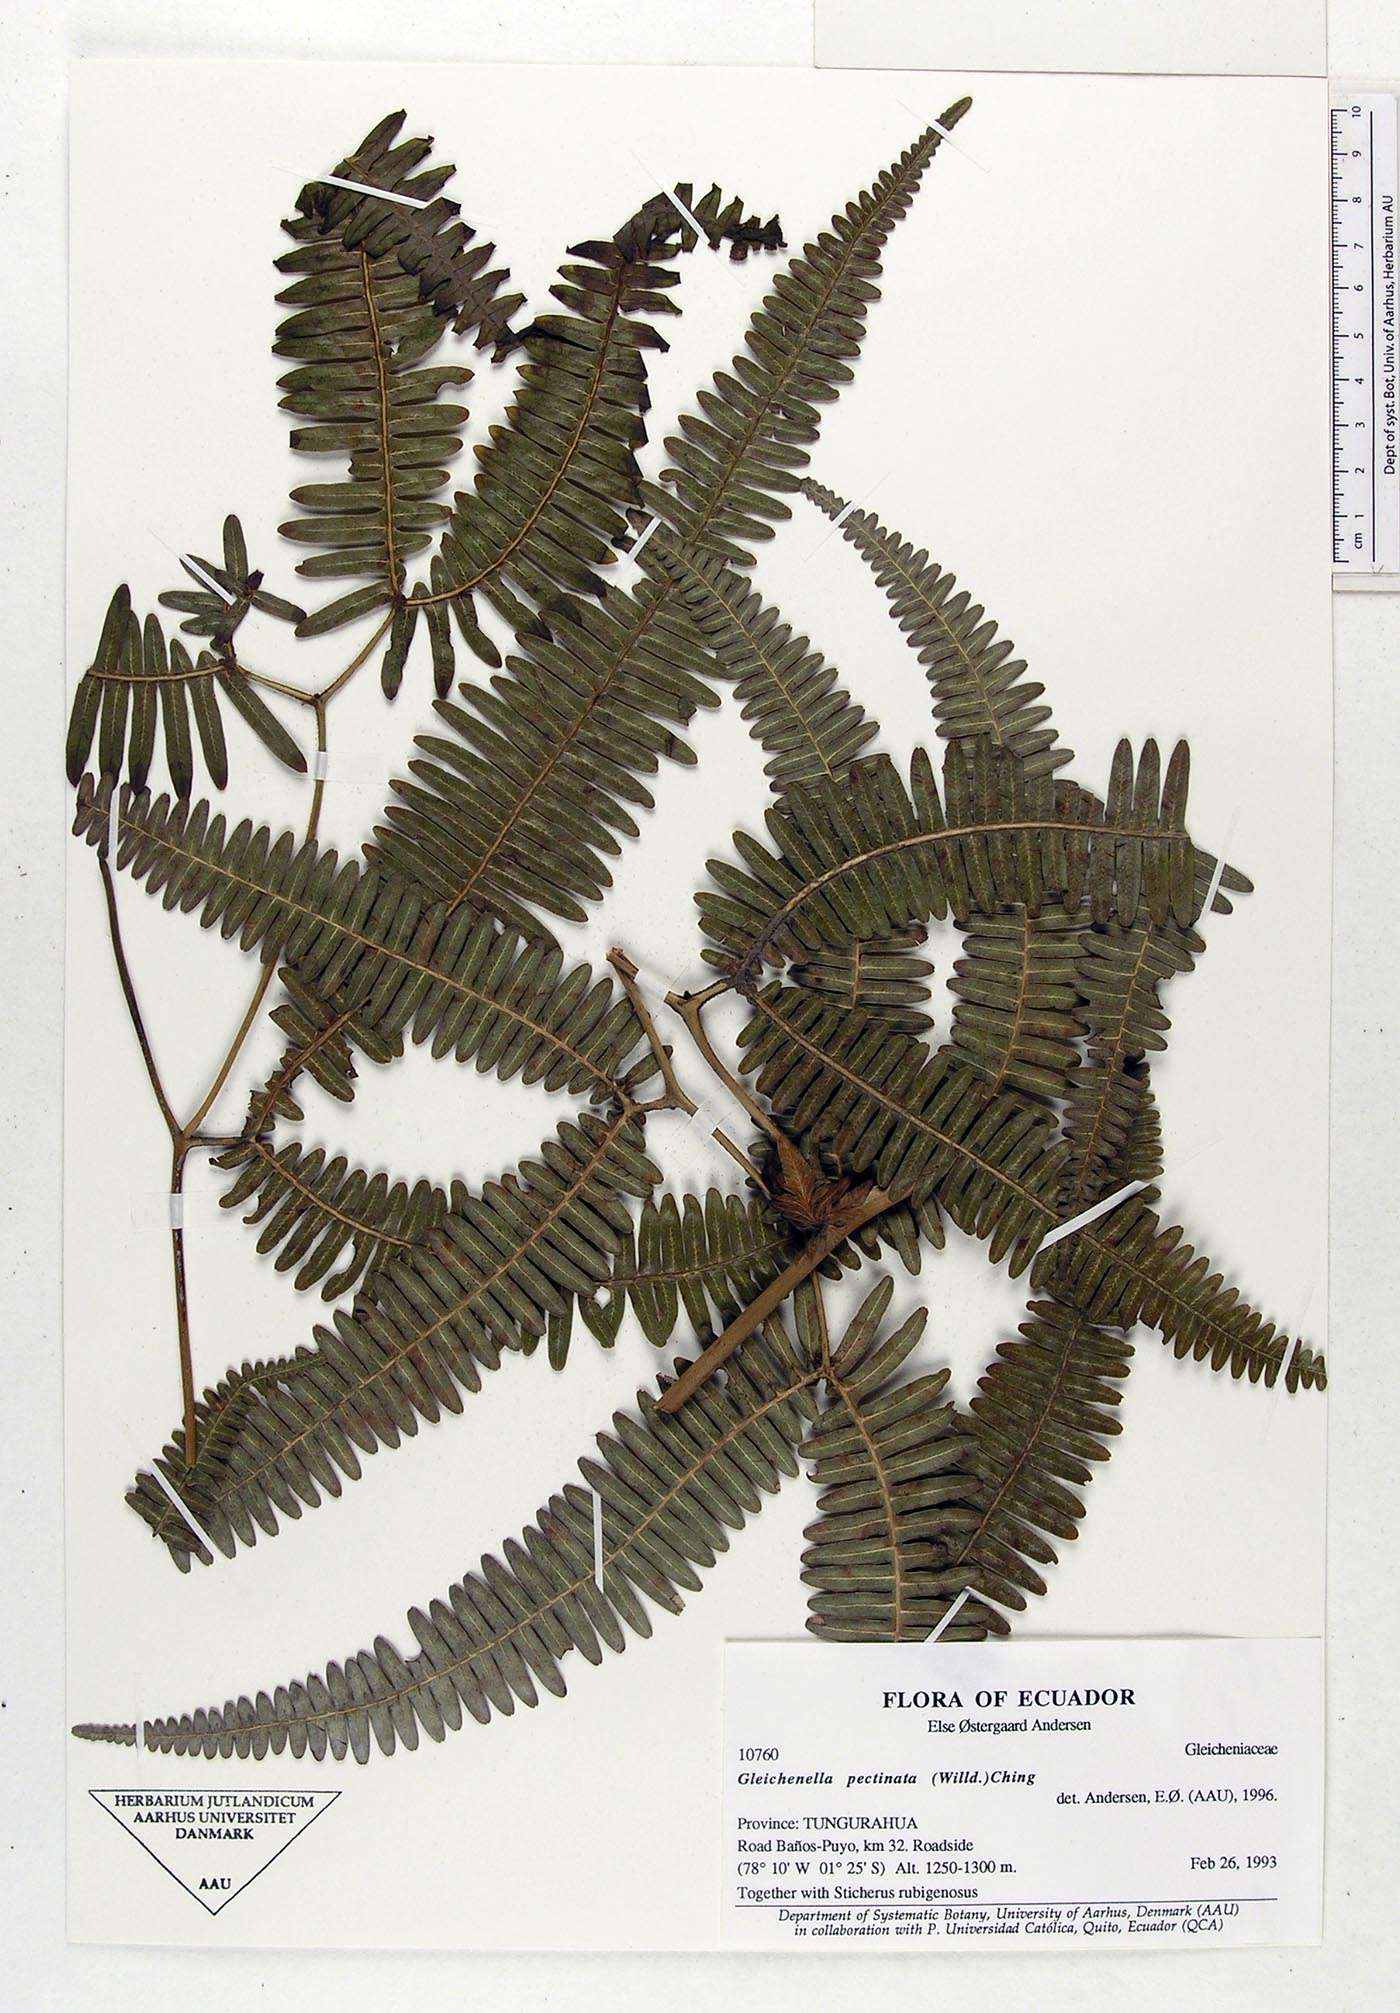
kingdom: Plantae
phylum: Tracheophyta
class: Polypodiopsida
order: Gleicheniales
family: Gleicheniaceae
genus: Gleichenella
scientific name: Gleichenella pectinata
